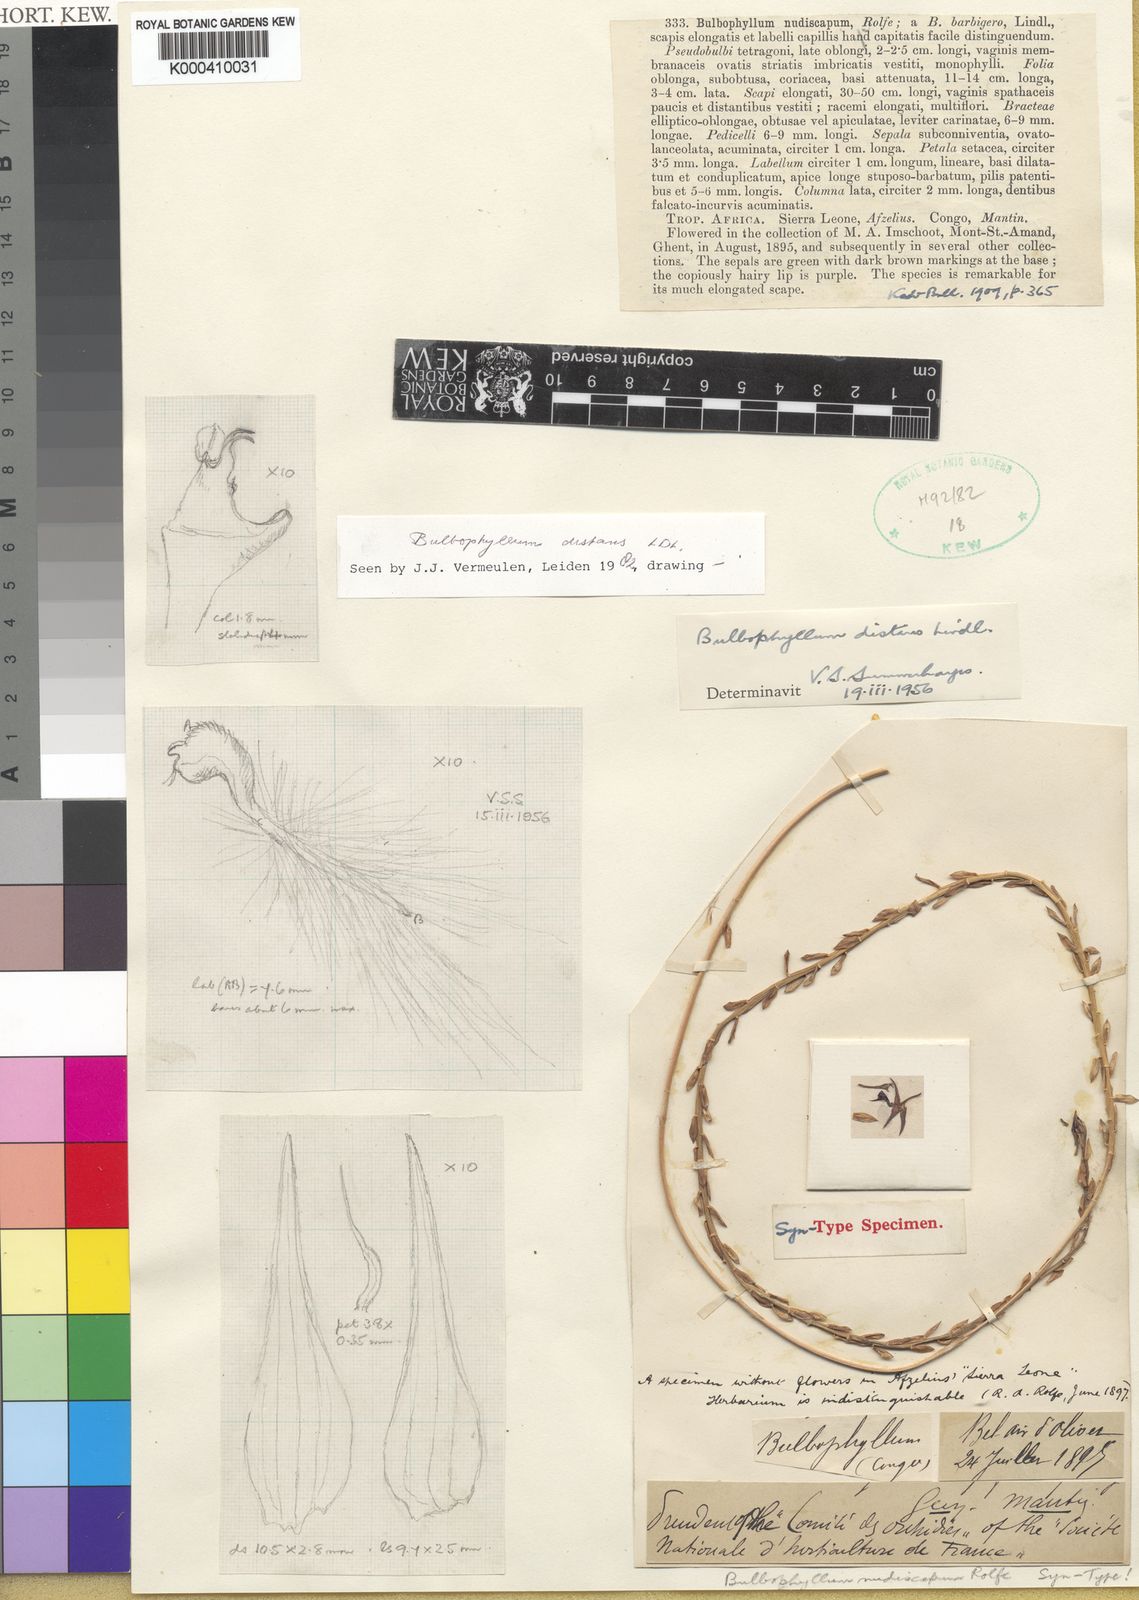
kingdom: Plantae
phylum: Tracheophyta
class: Liliopsida
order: Asparagales
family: Orchidaceae
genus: Bulbophyllum
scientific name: Bulbophyllum saltatorium
